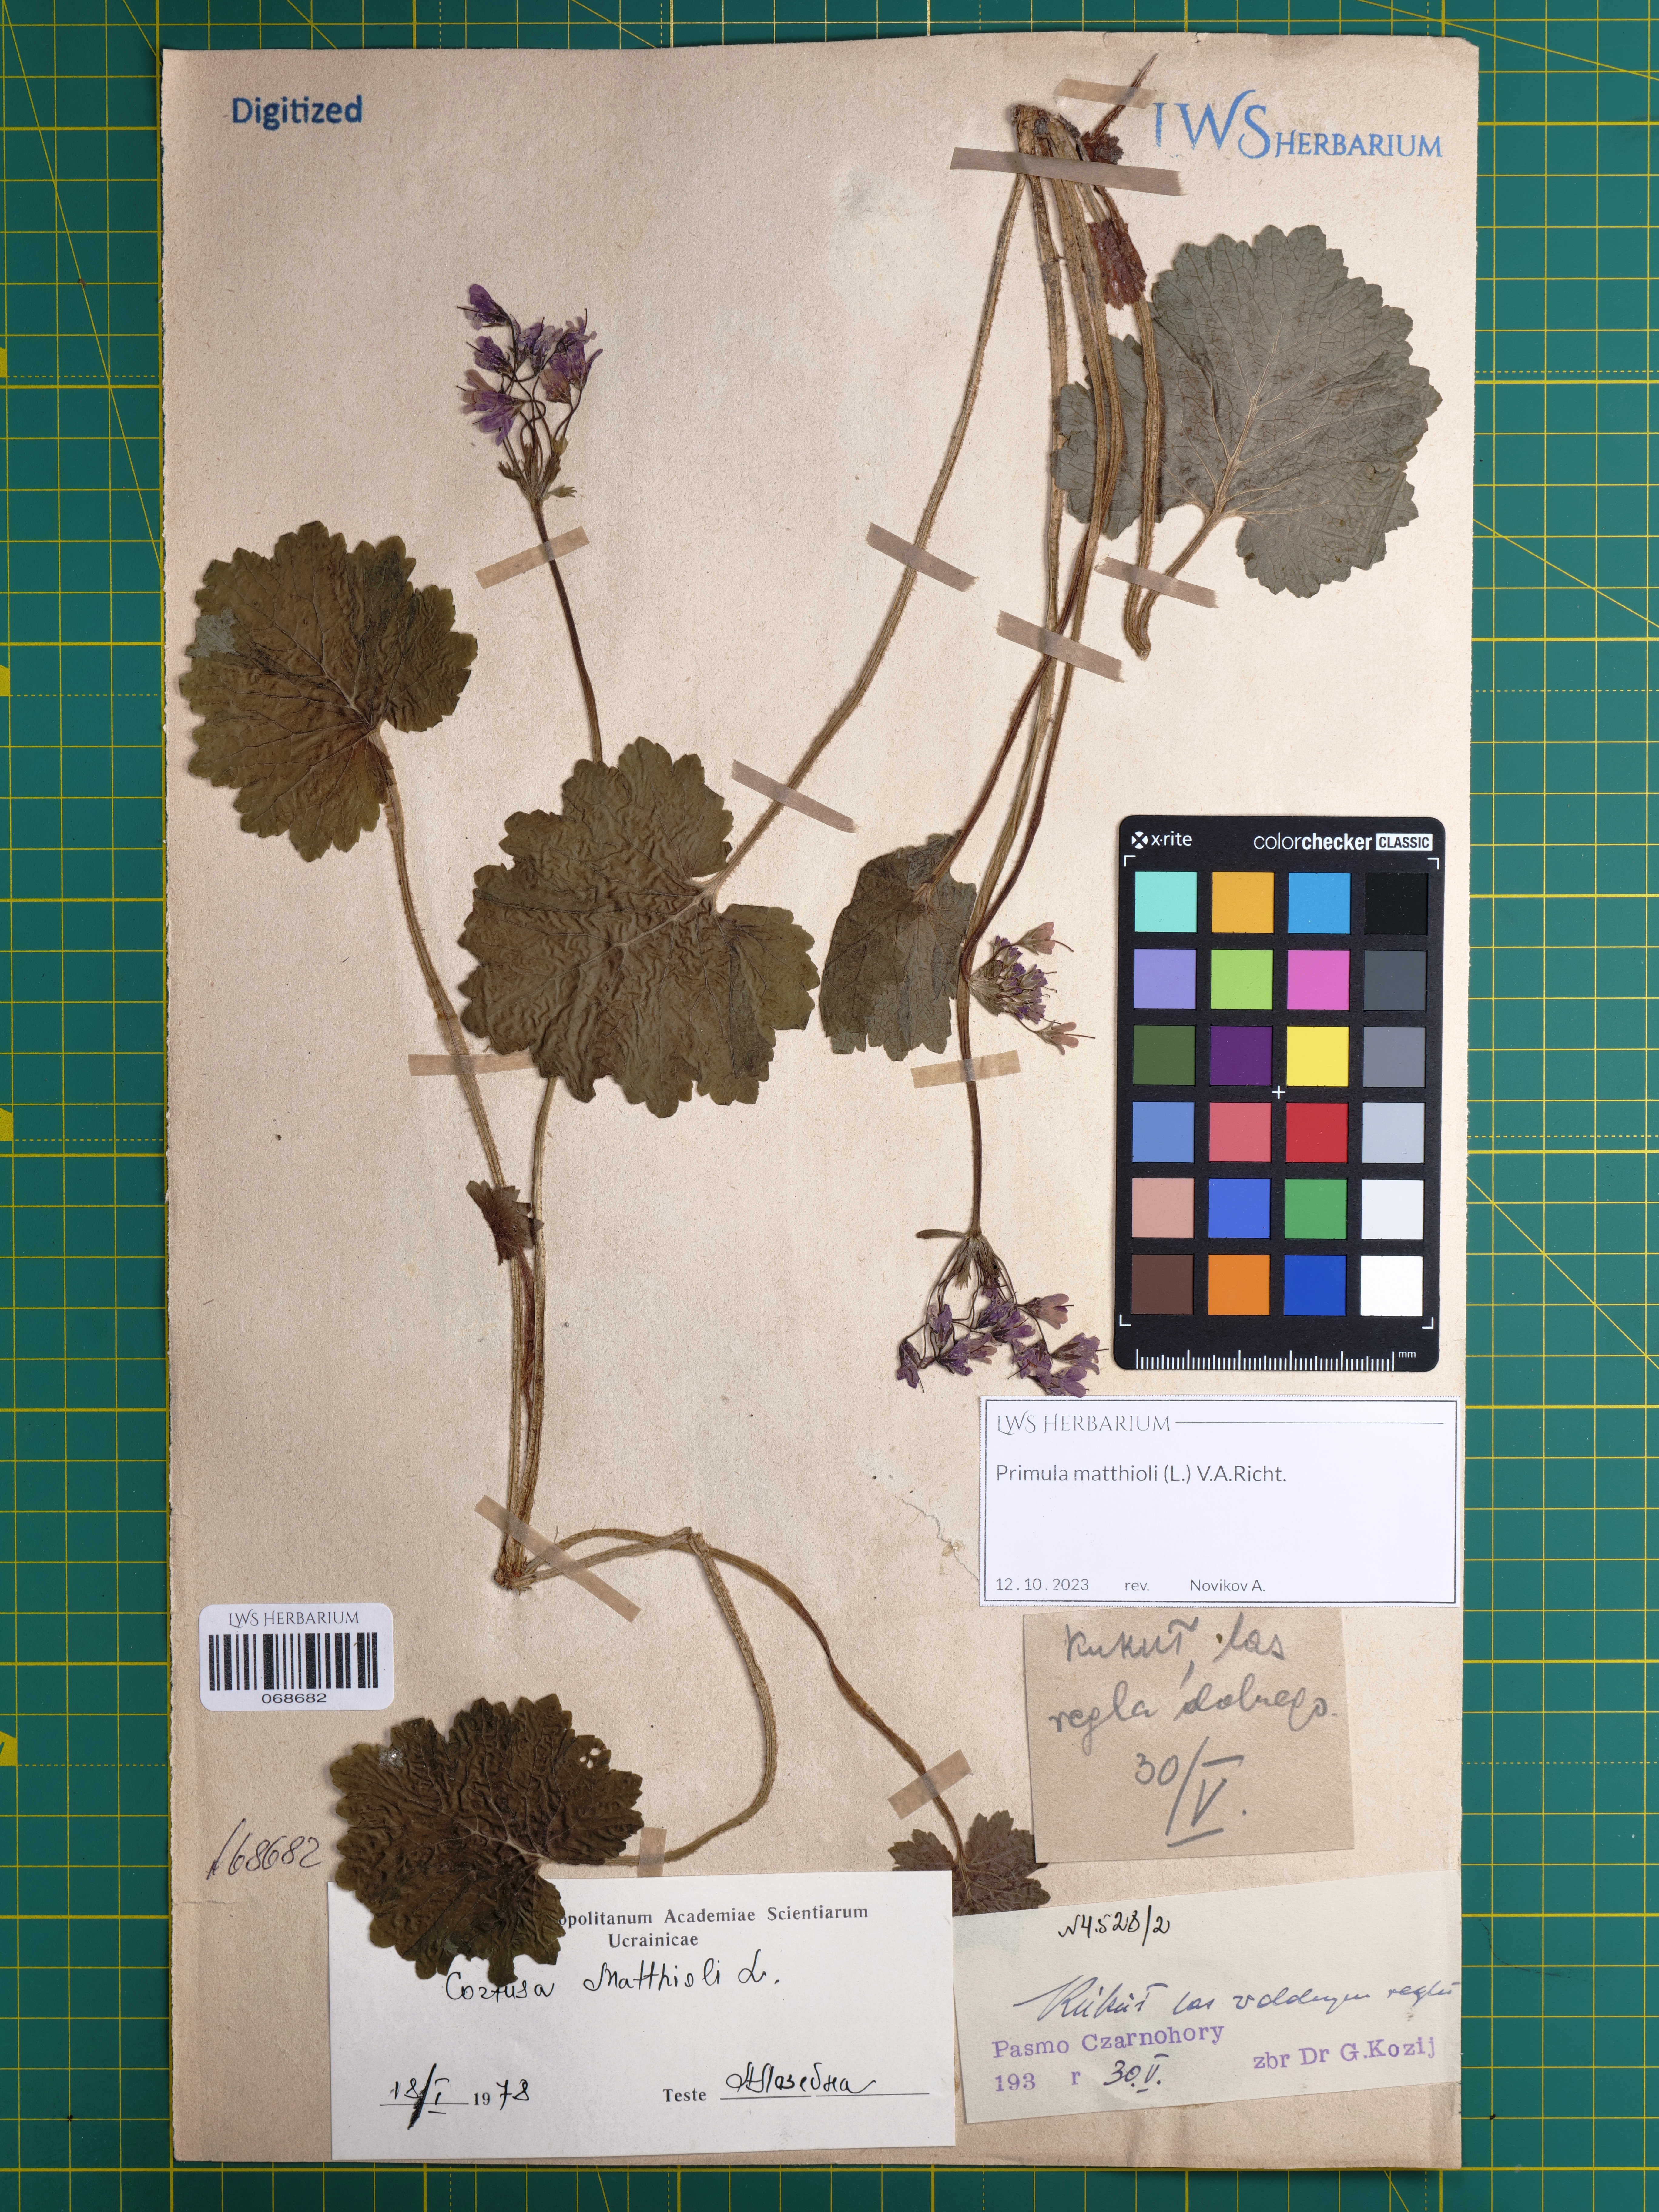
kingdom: Plantae
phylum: Tracheophyta
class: Magnoliopsida
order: Ericales
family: Primulaceae
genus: Primula
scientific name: Primula matthioli
